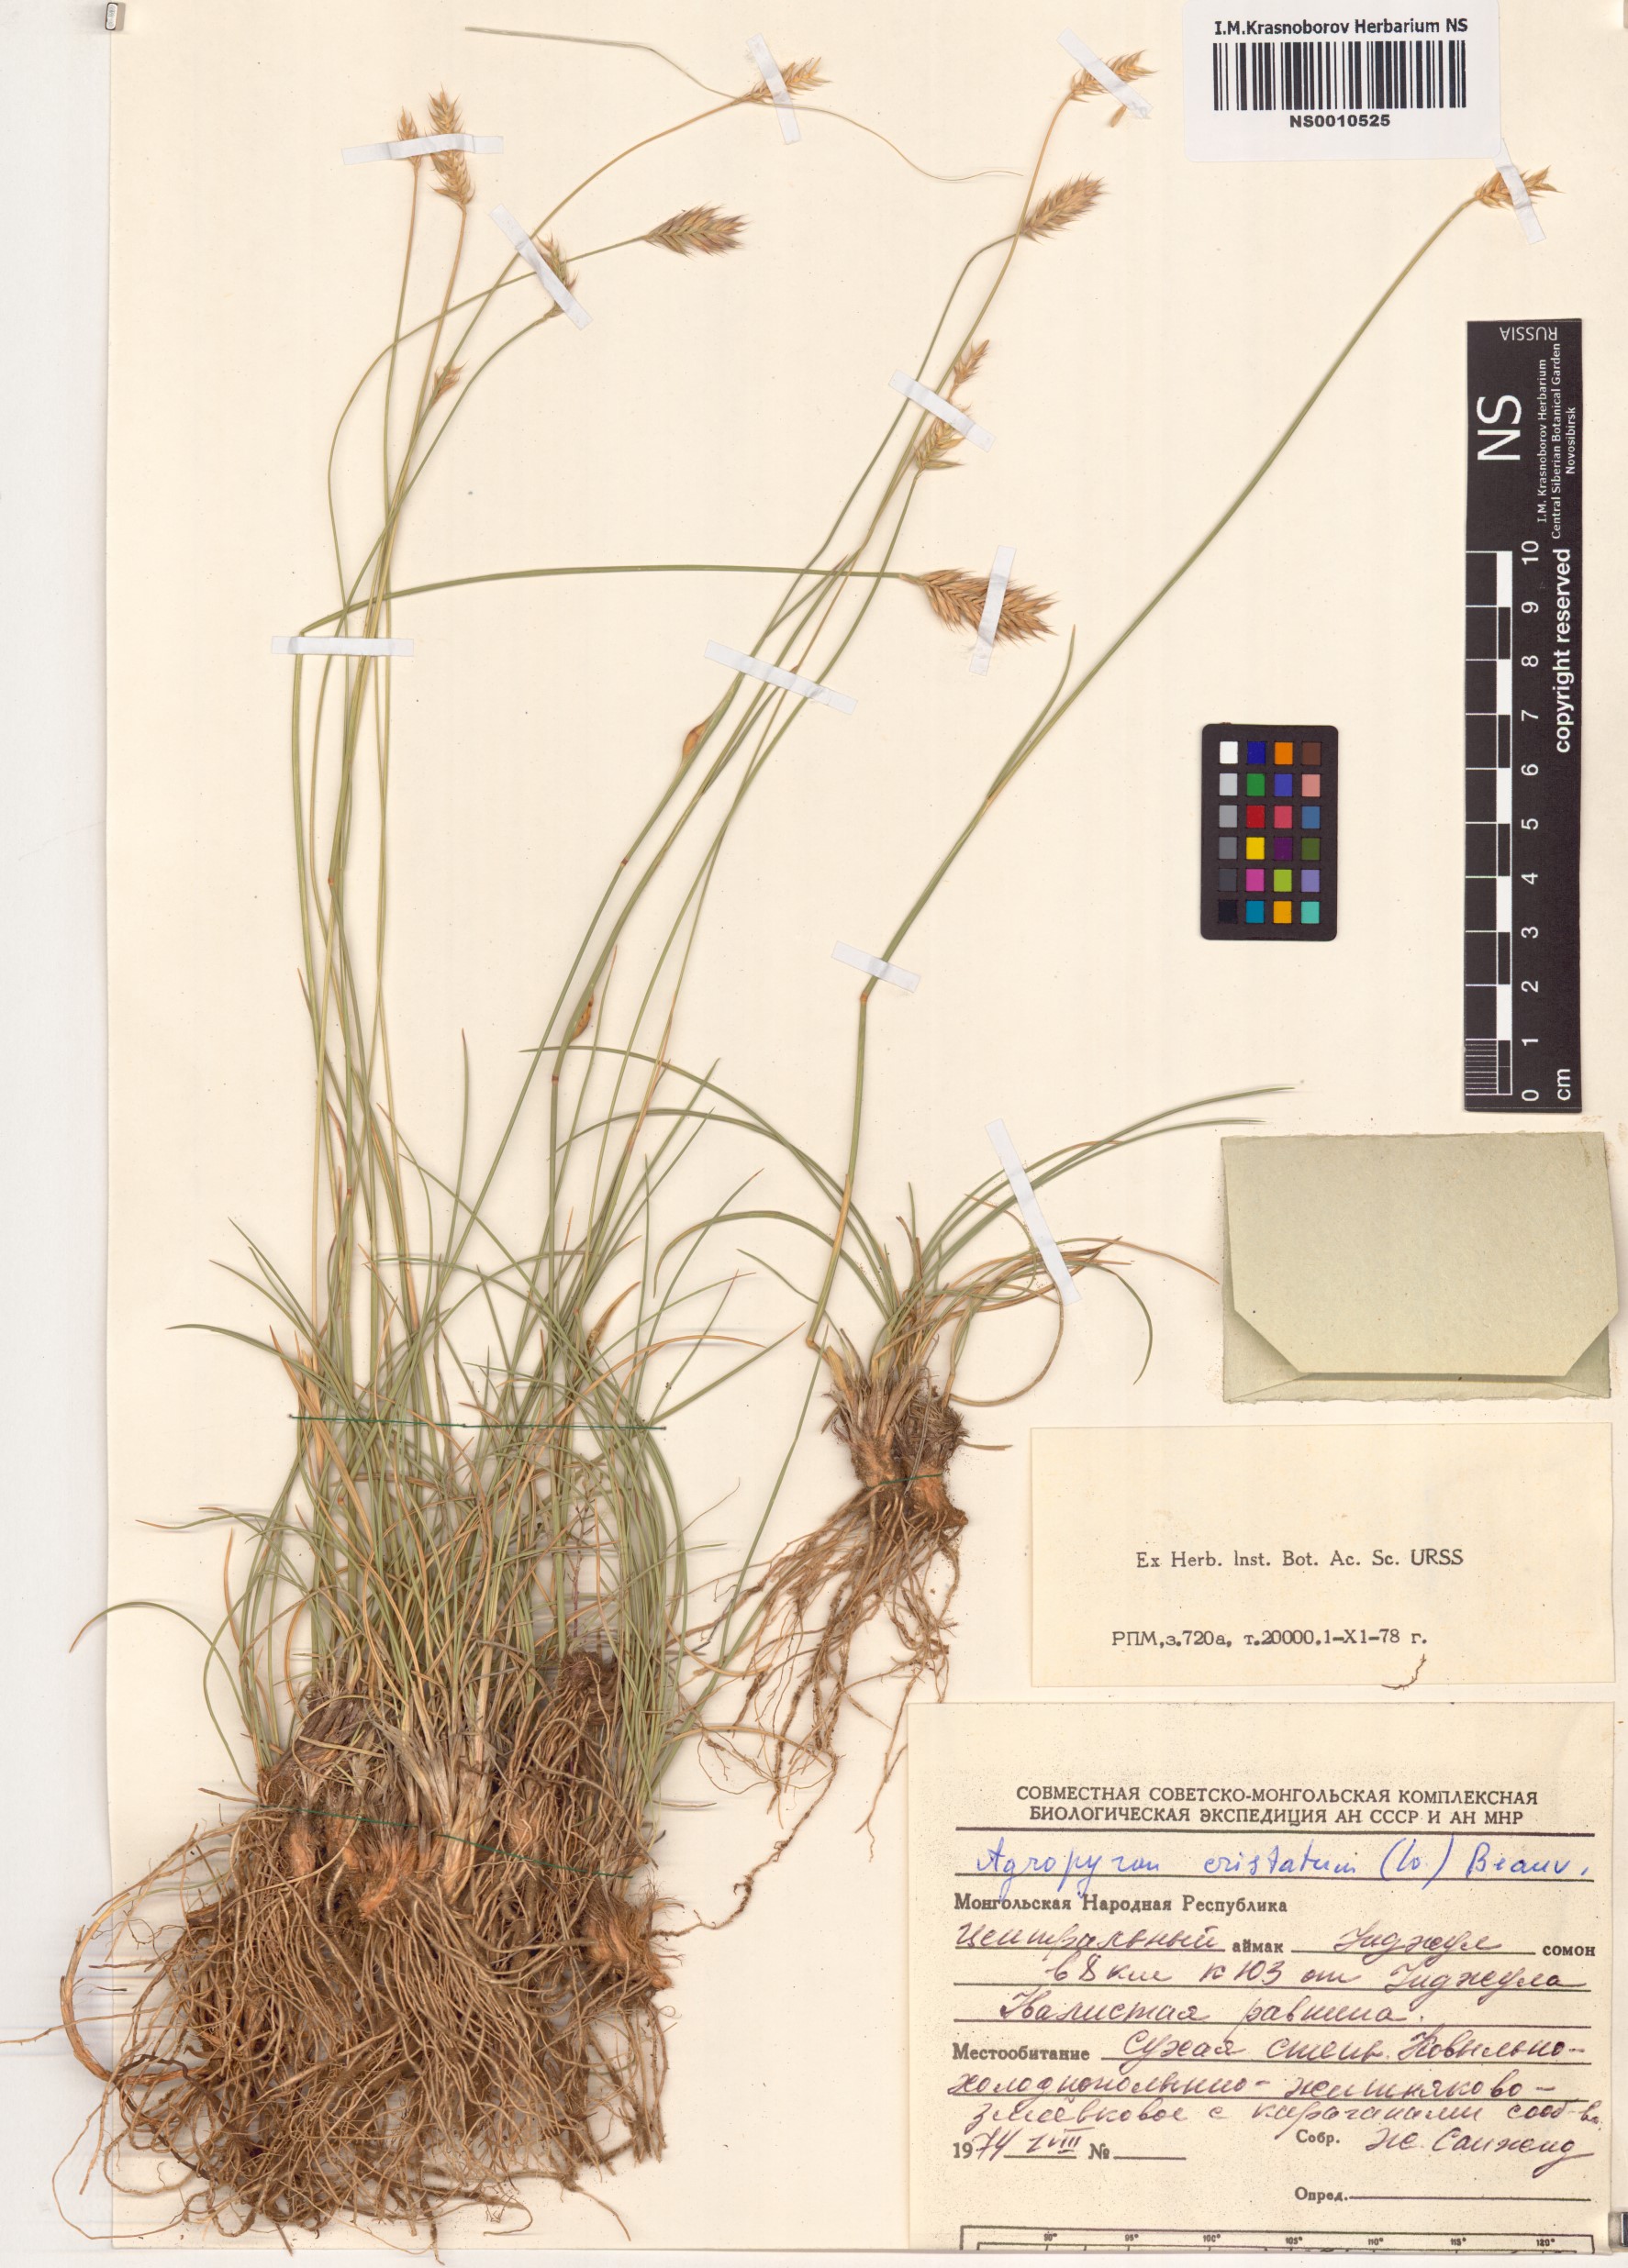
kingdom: Plantae
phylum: Tracheophyta
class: Liliopsida
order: Poales
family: Poaceae
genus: Agropyron
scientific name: Agropyron cristatum
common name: Crested wheatgrass
